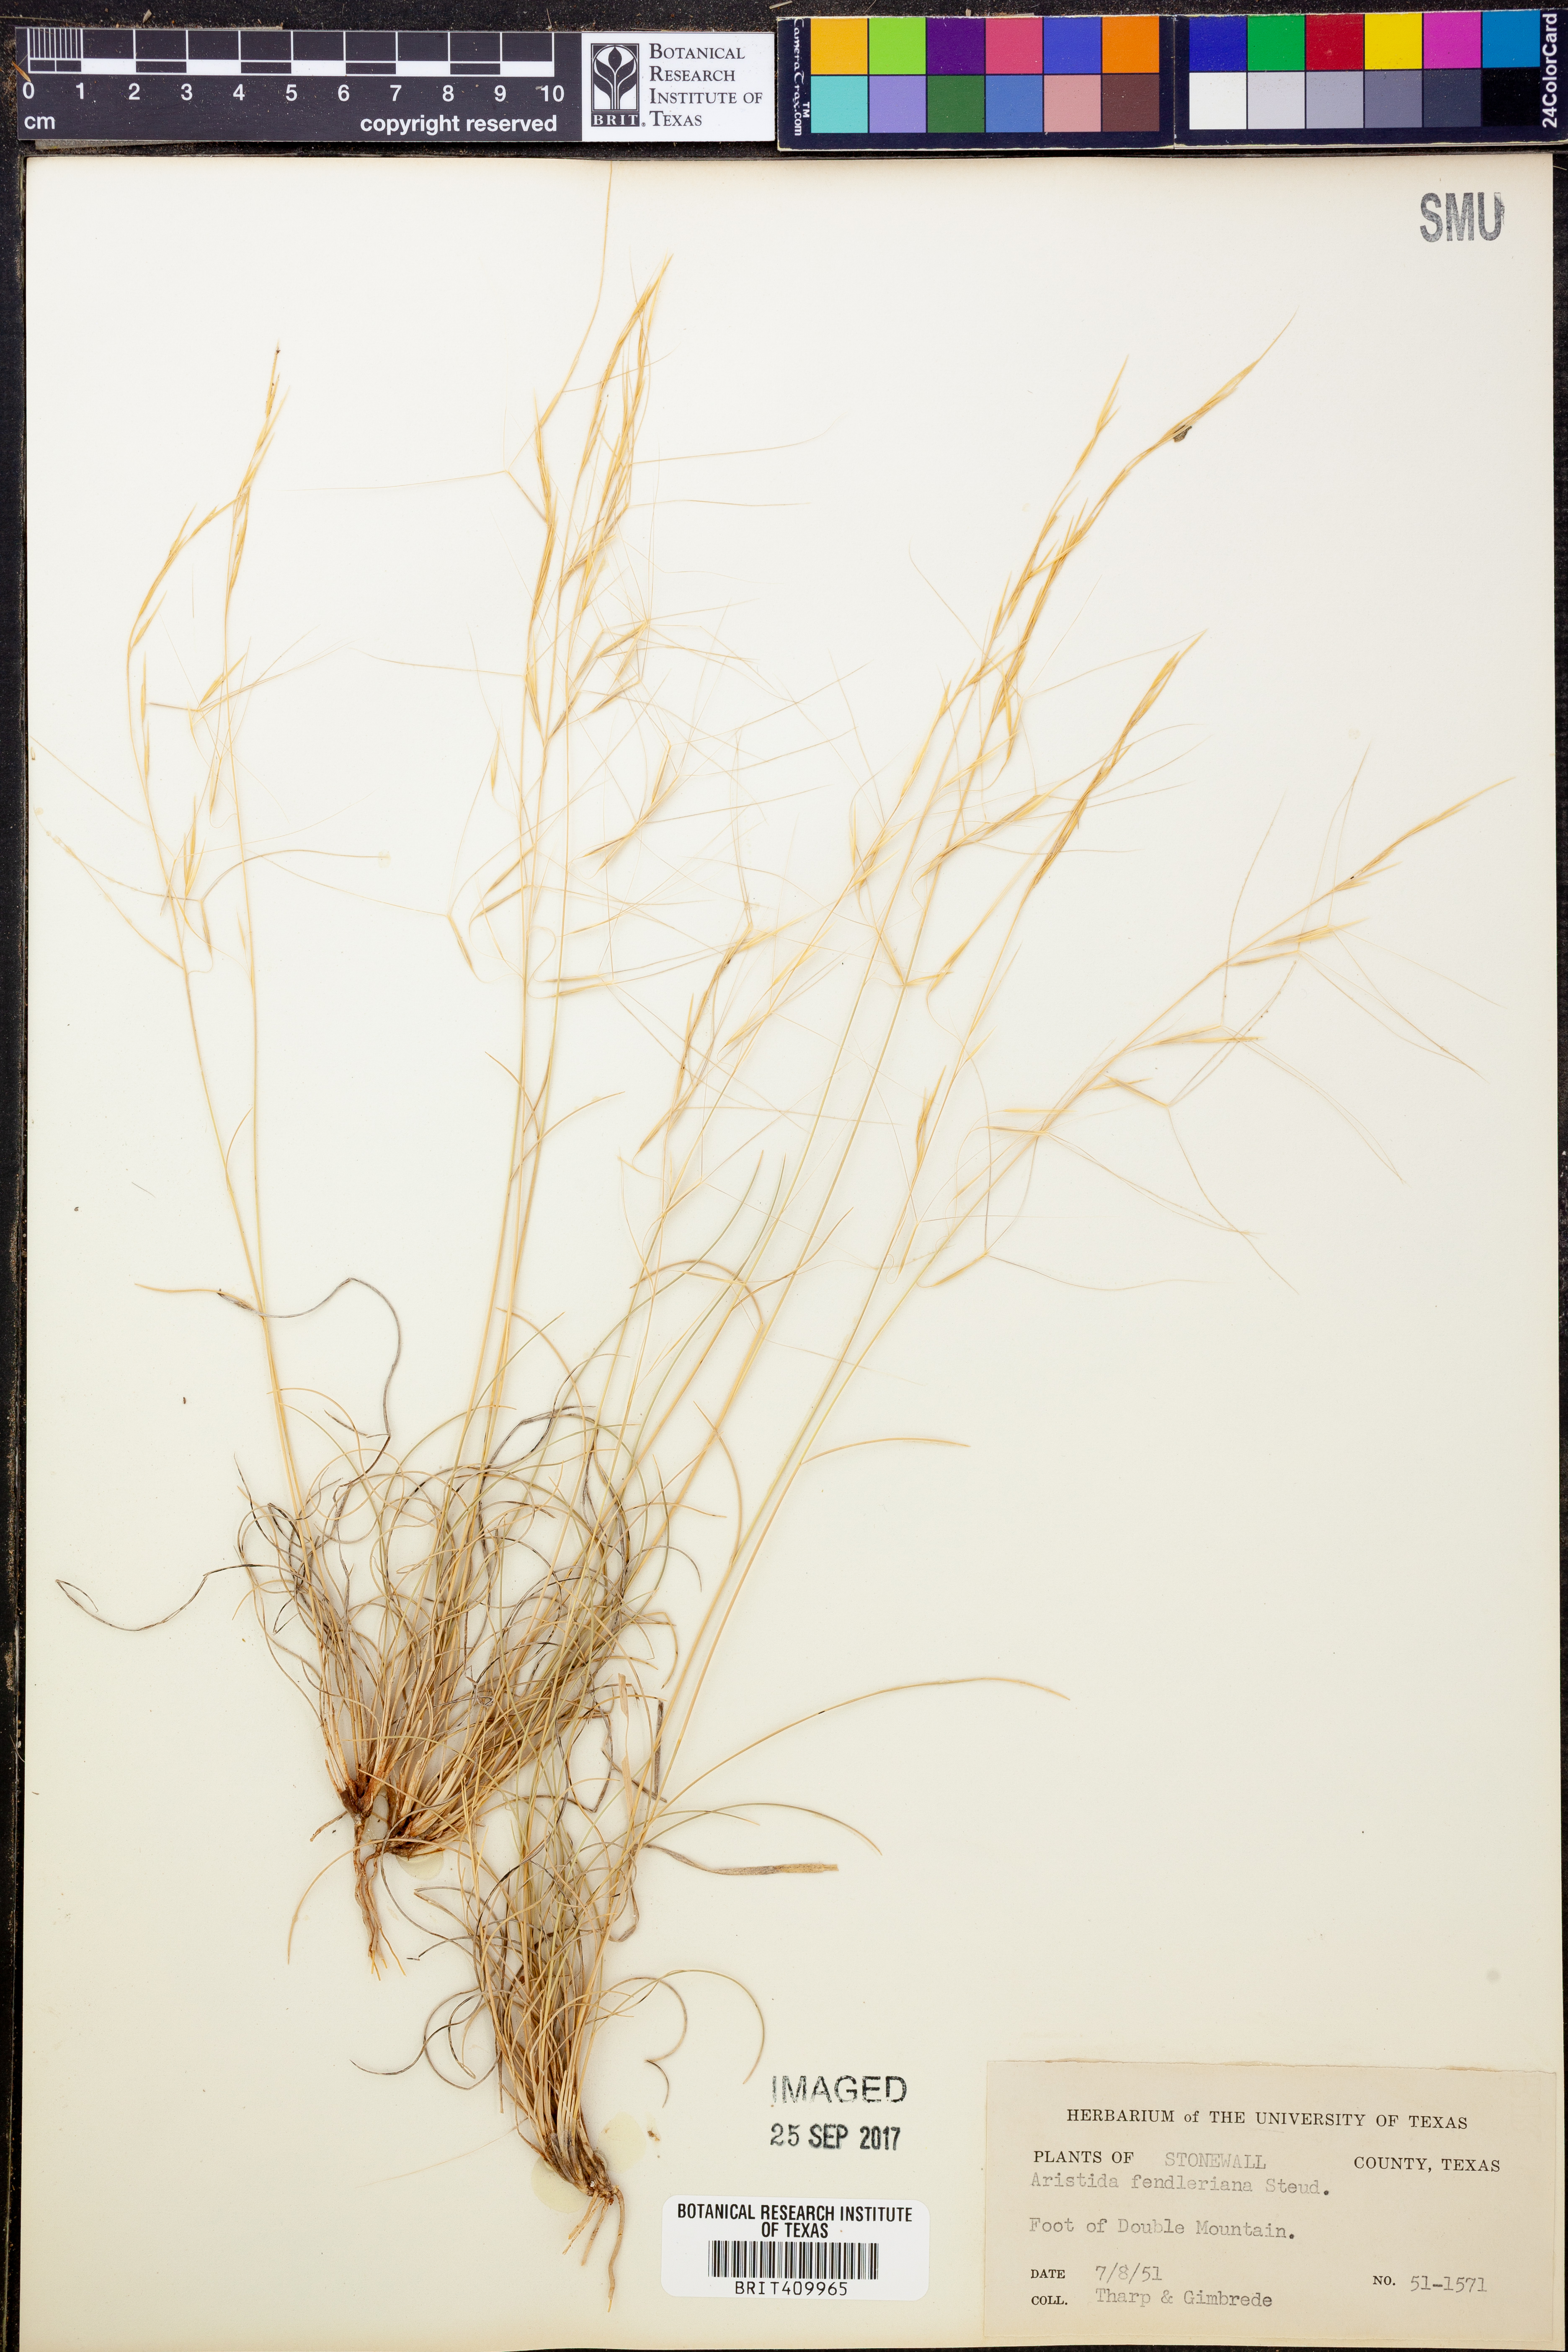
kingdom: Plantae
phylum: Tracheophyta
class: Liliopsida
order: Poales
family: Poaceae
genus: Aristida
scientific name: Aristida fendleriana
